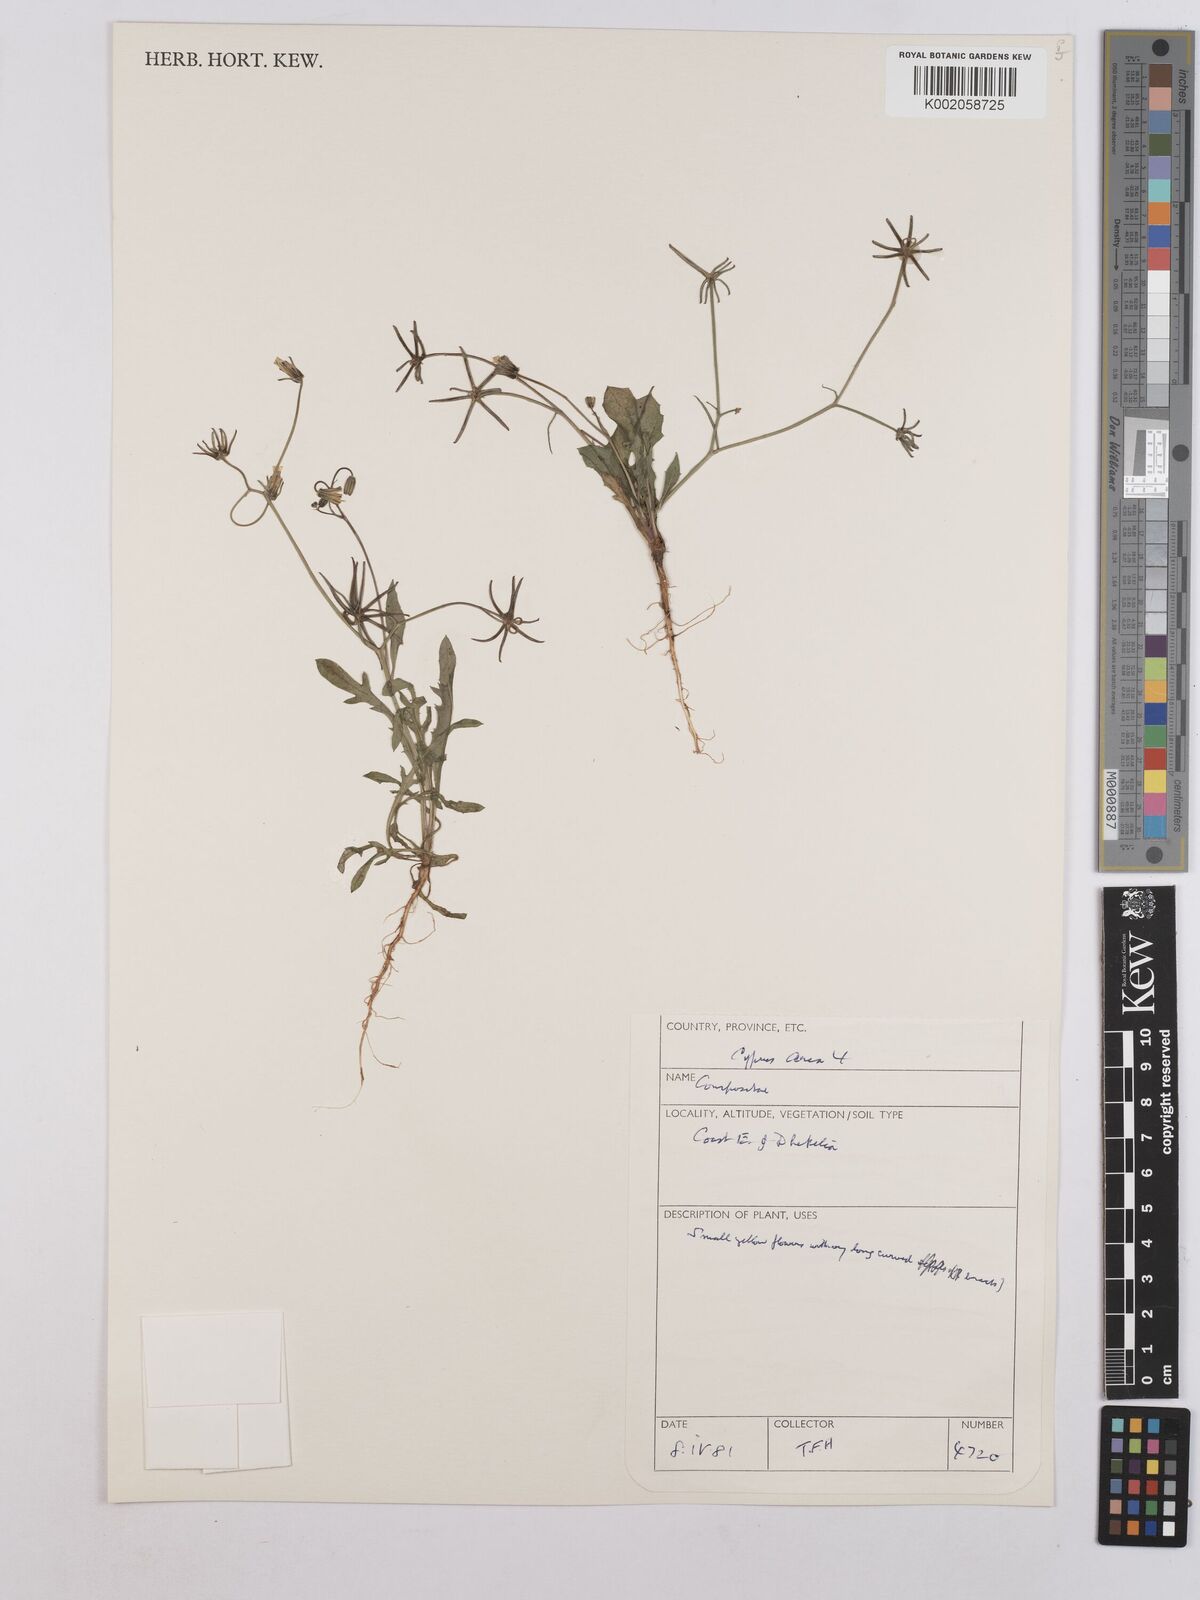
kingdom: Plantae
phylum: Tracheophyta
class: Magnoliopsida
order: Asterales
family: Asteraceae
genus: Rhagadiolus
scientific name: Rhagadiolus stellatus
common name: Star hawkbit
